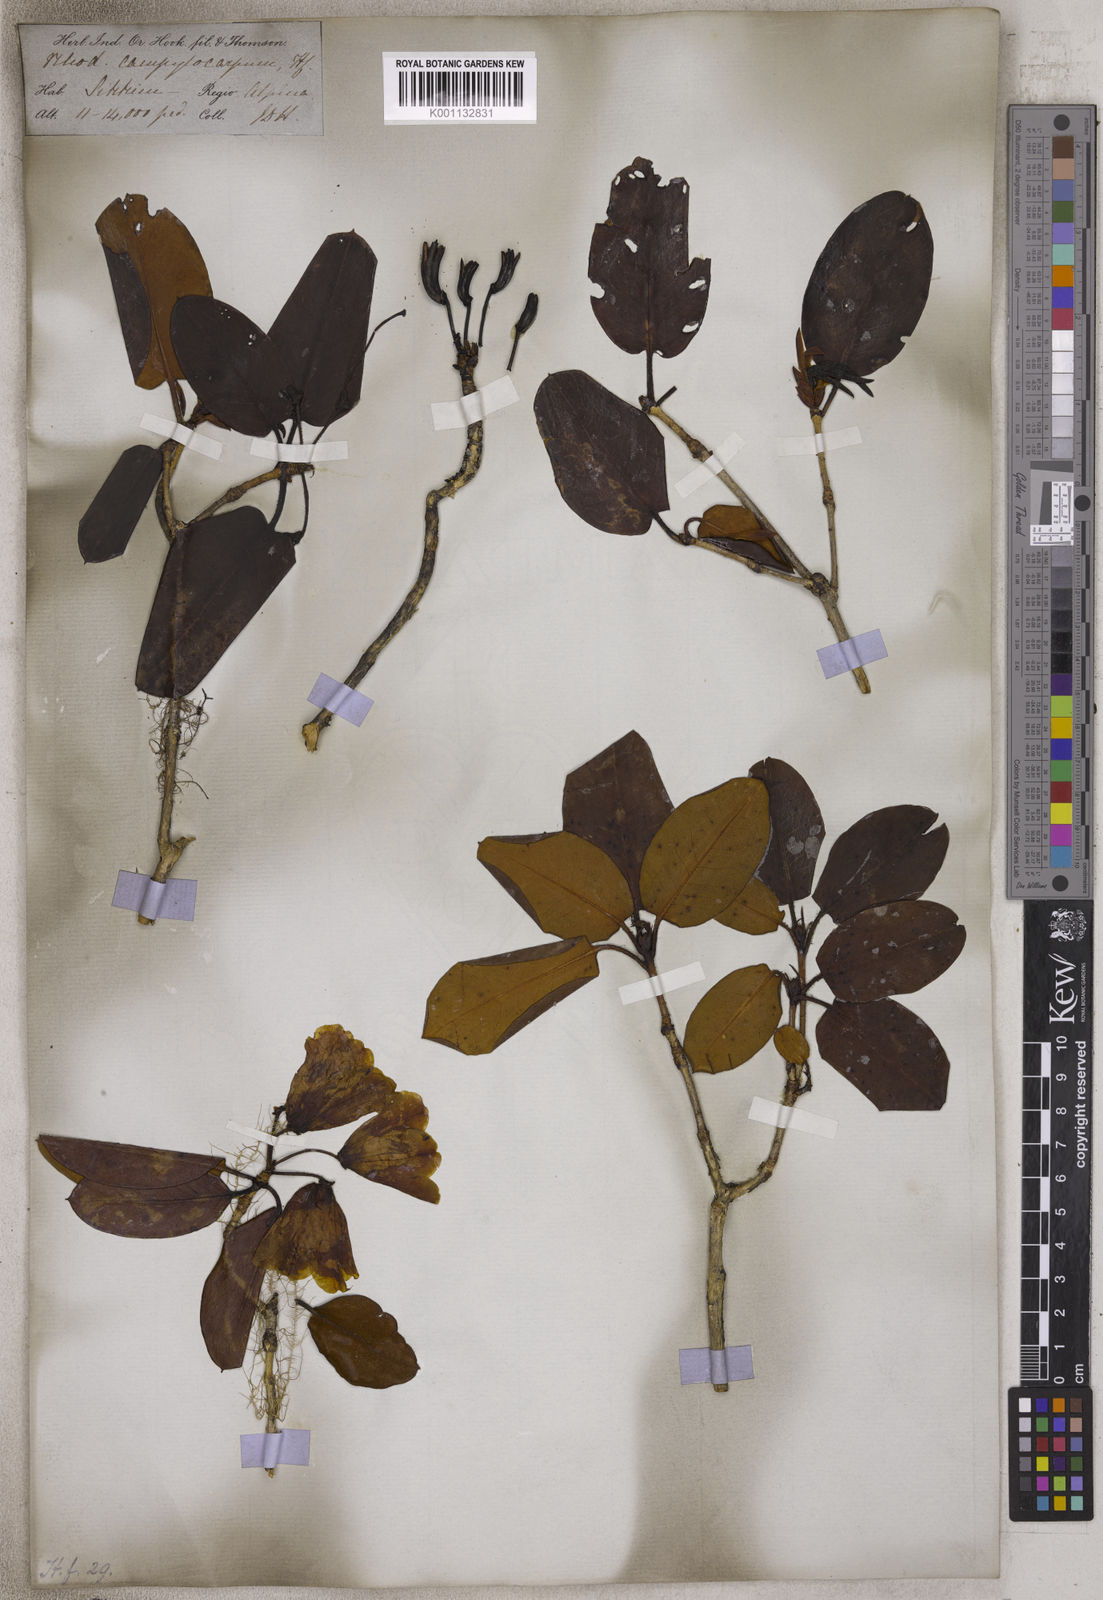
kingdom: Plantae
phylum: Tracheophyta
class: Magnoliopsida
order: Ericales
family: Ericaceae
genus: Rhododendron
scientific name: Rhododendron campylocarpum
